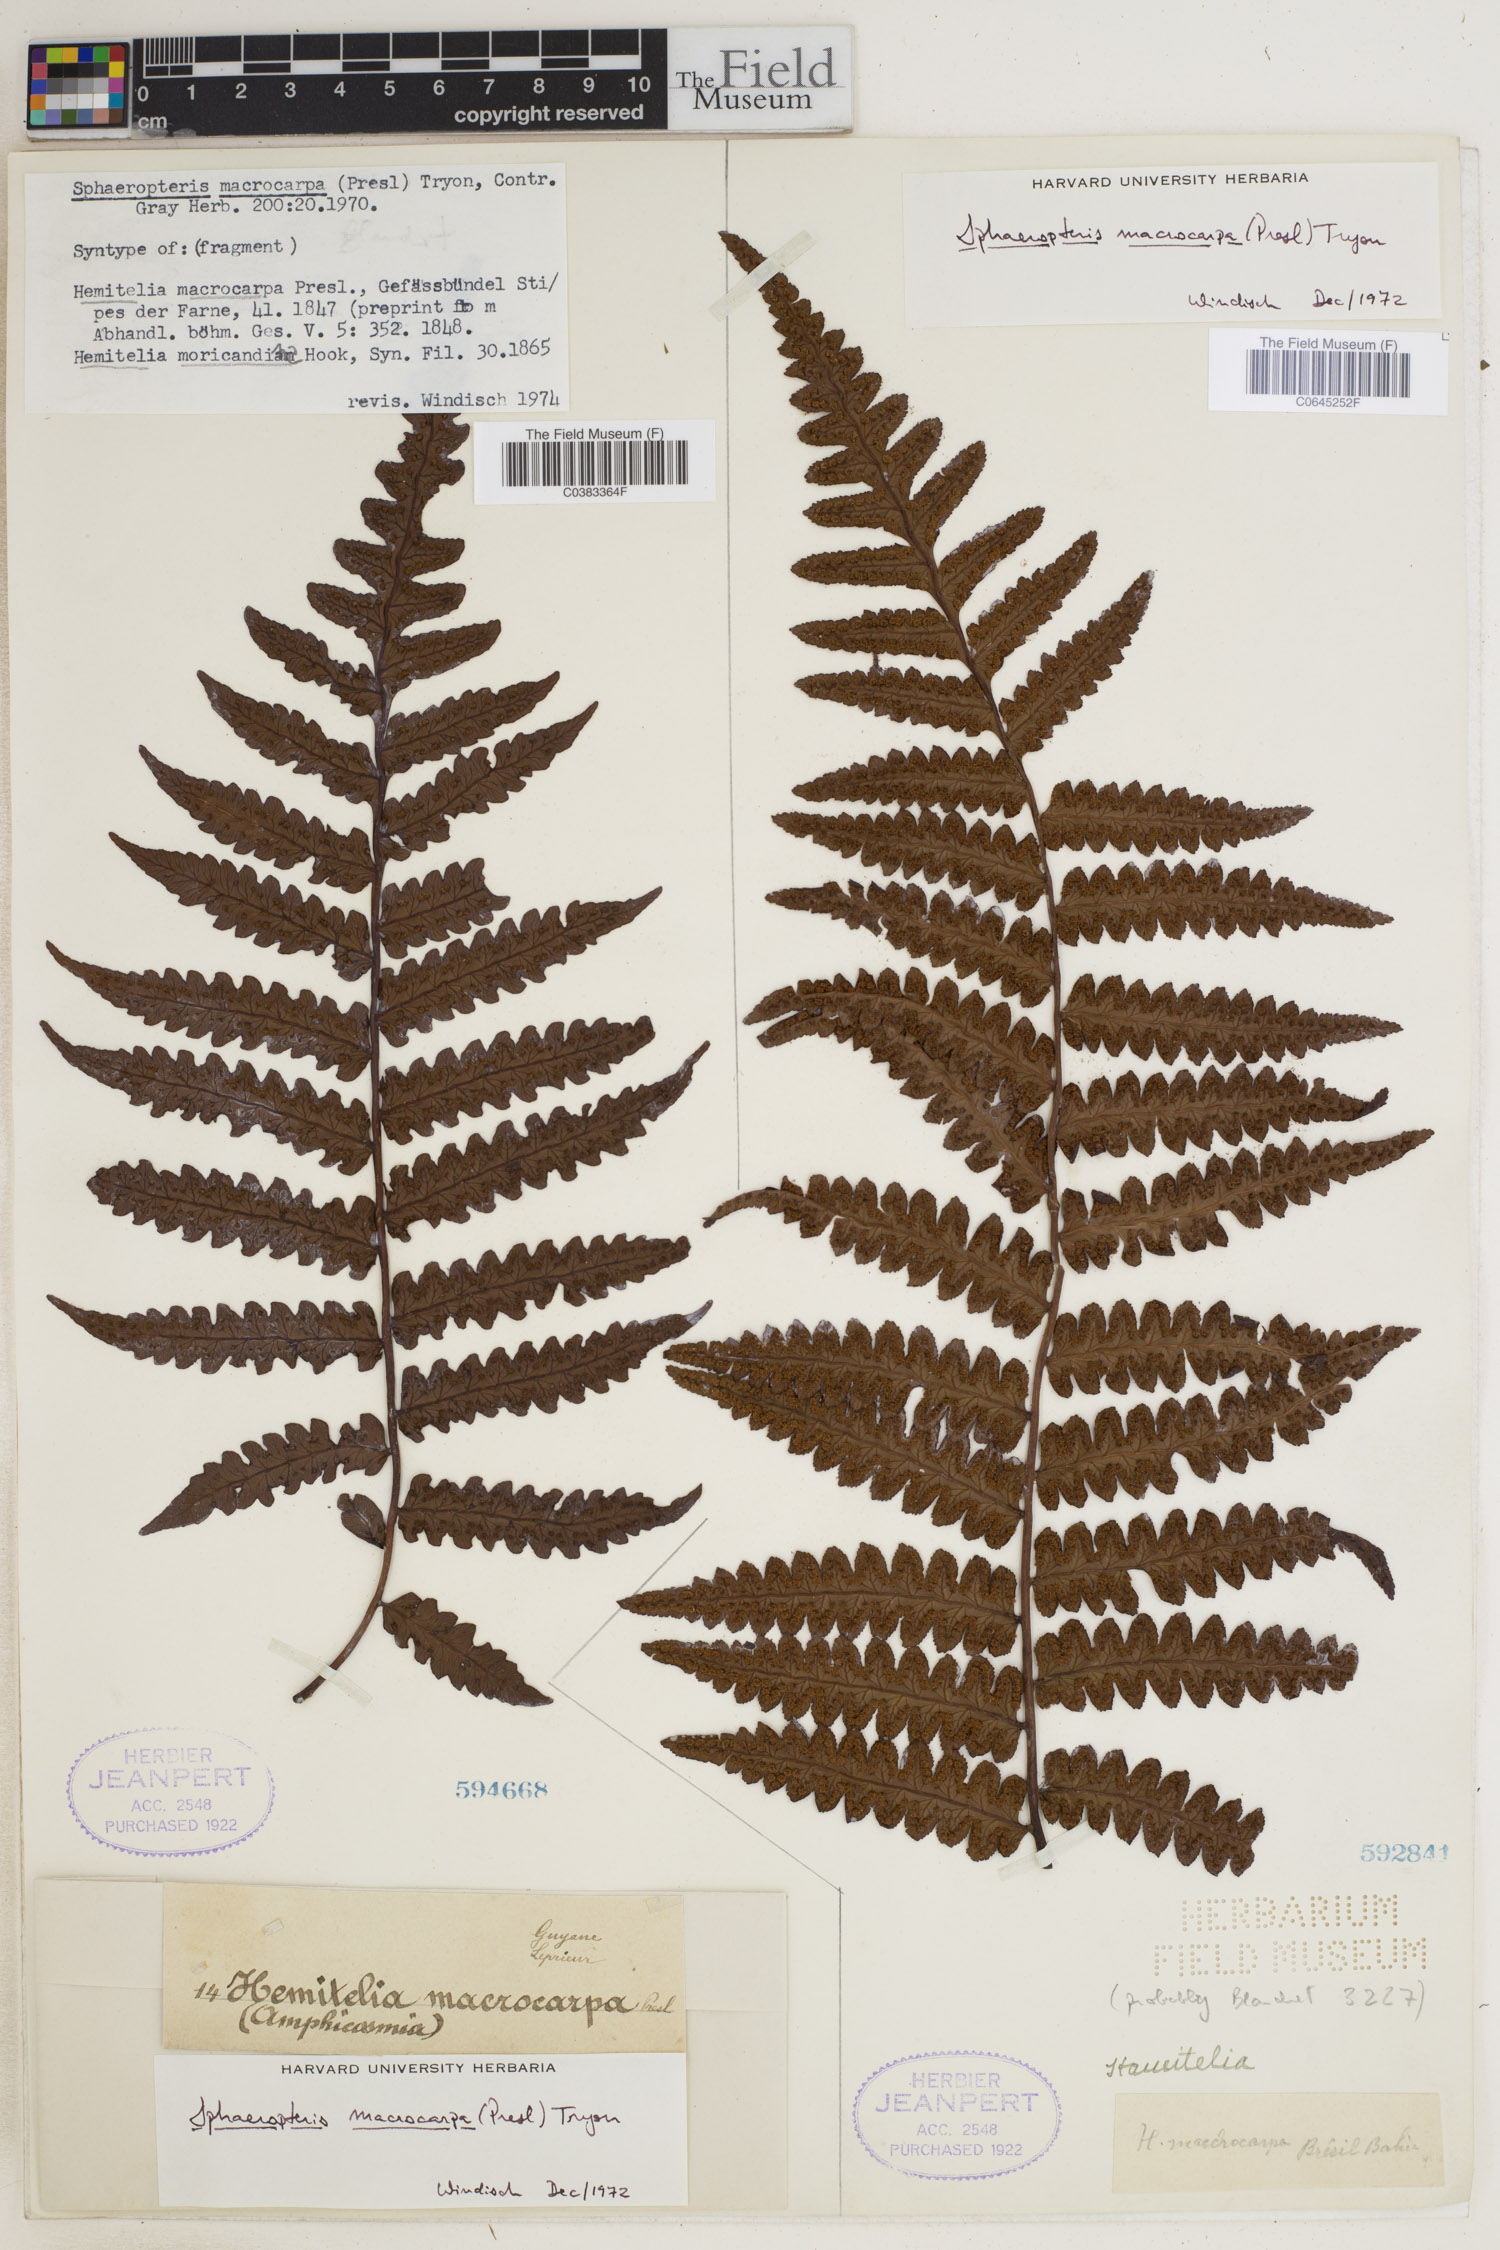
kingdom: Plantae
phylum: Tracheophyta
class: Polypodiopsida
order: Cyatheales
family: Cyatheaceae
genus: Cyathea
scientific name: Cyathea macrocarpa
